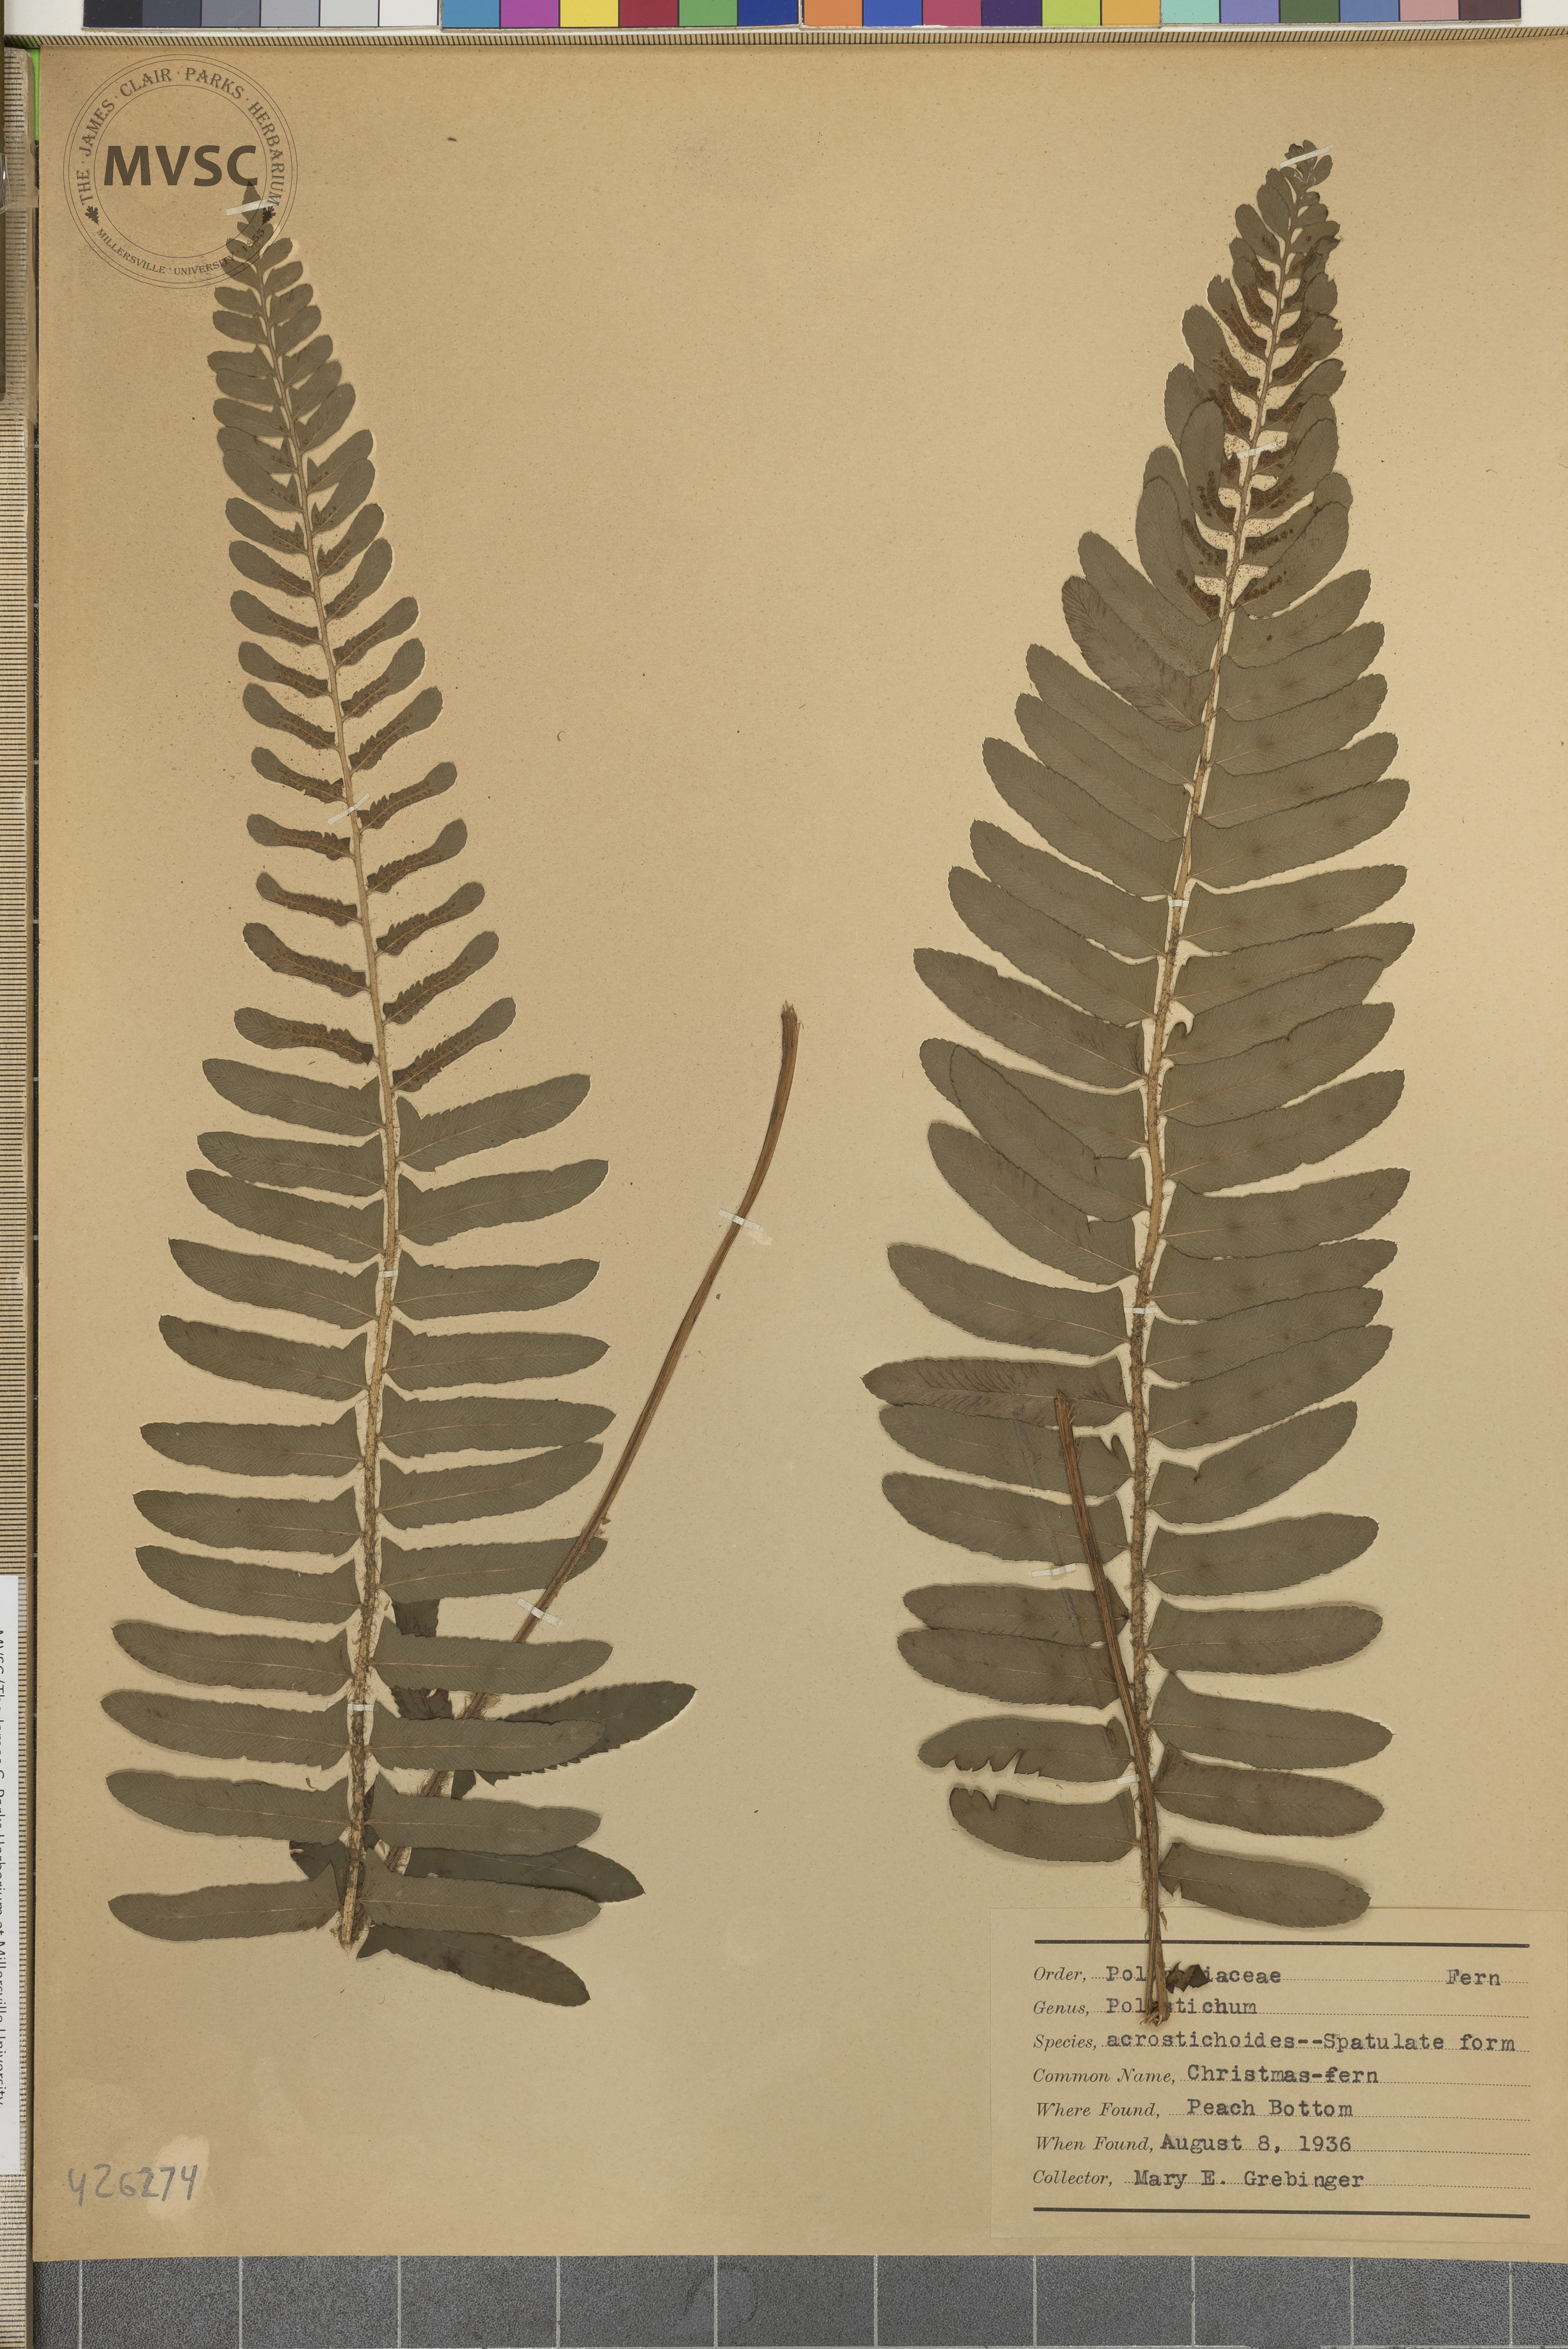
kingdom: Plantae
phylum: Tracheophyta
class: Polypodiopsida
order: Polypodiales
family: Dryopteridaceae
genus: Polystichum
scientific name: Polystichum acrostichoides
